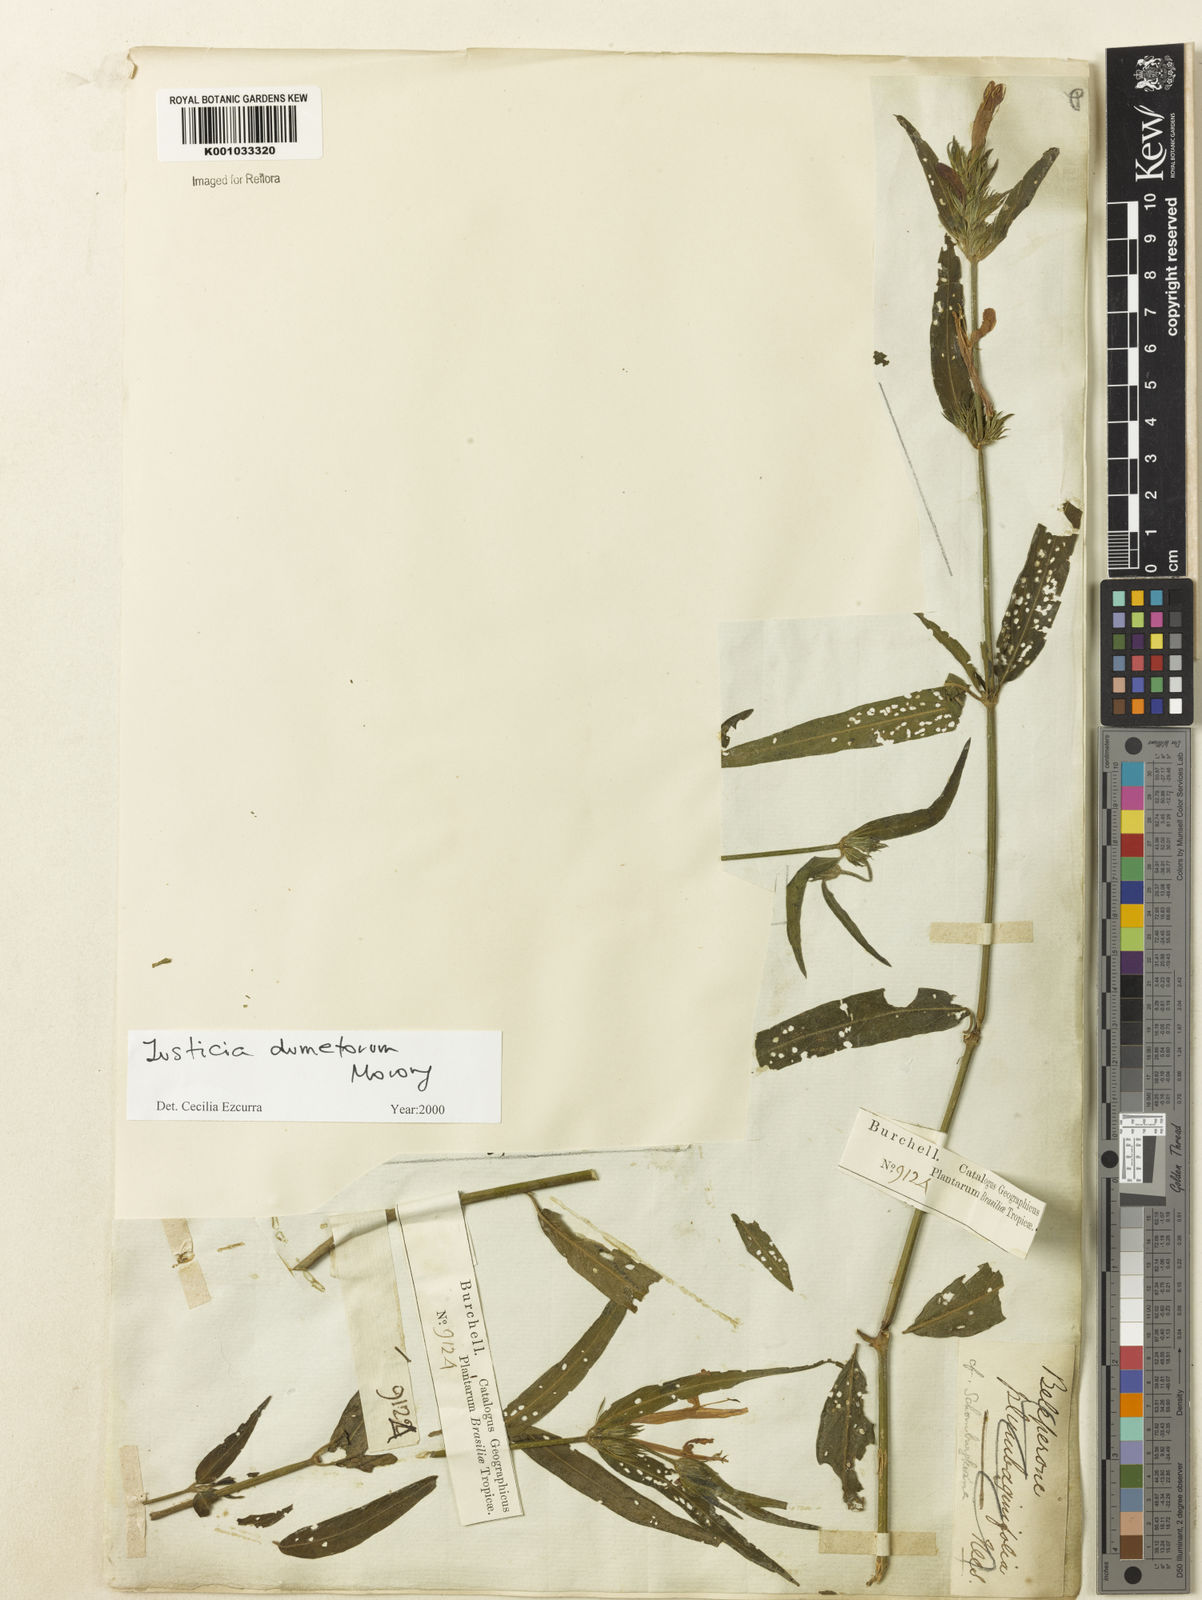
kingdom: Plantae
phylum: Tracheophyta
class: Magnoliopsida
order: Lamiales
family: Acanthaceae
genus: Justicia
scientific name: Justicia dumetorum
